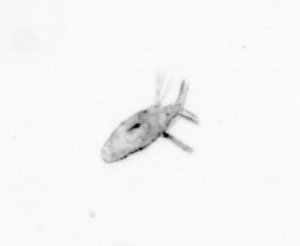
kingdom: Animalia
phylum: Arthropoda
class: Copepoda
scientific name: Copepoda
